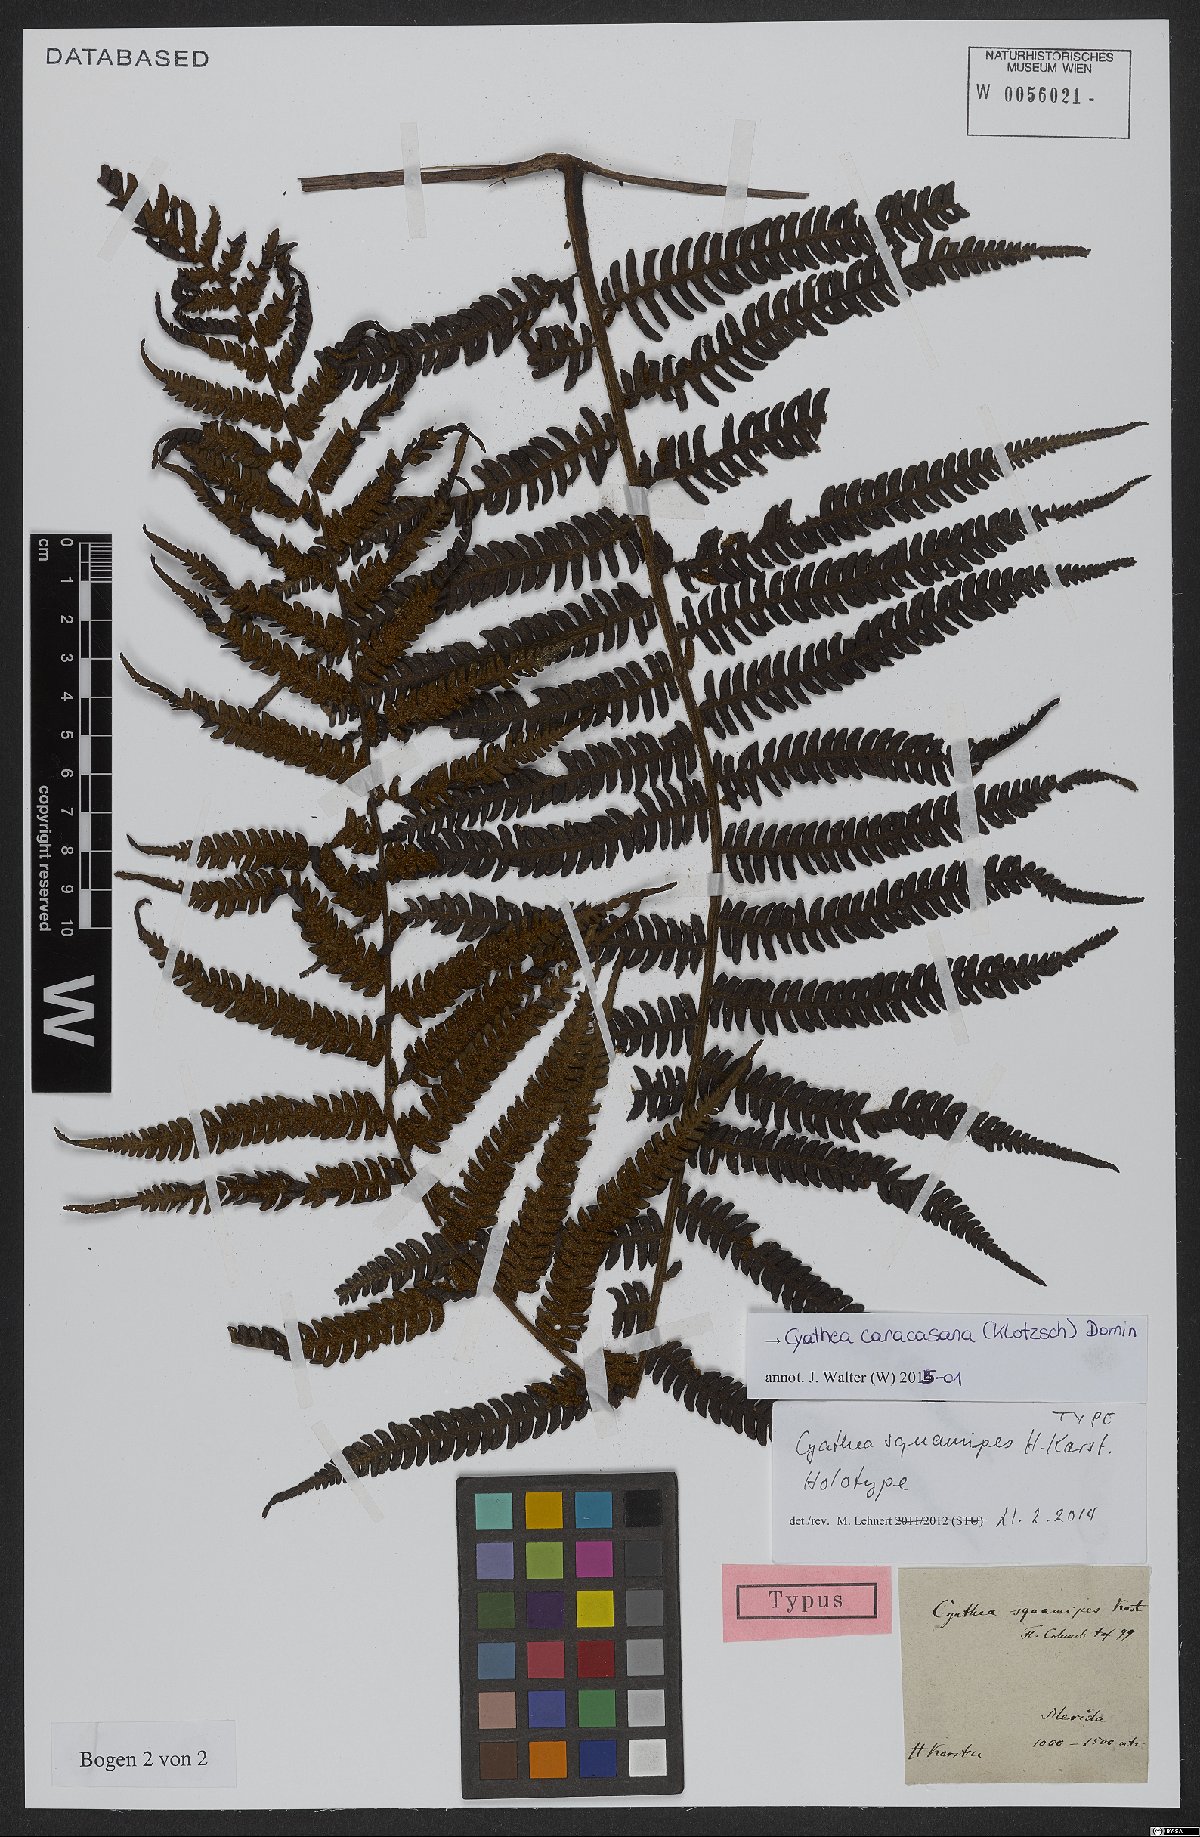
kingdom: Plantae
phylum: Tracheophyta
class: Polypodiopsida
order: Cyatheales
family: Cyatheaceae
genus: Cyathea
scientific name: Cyathea caracasana
